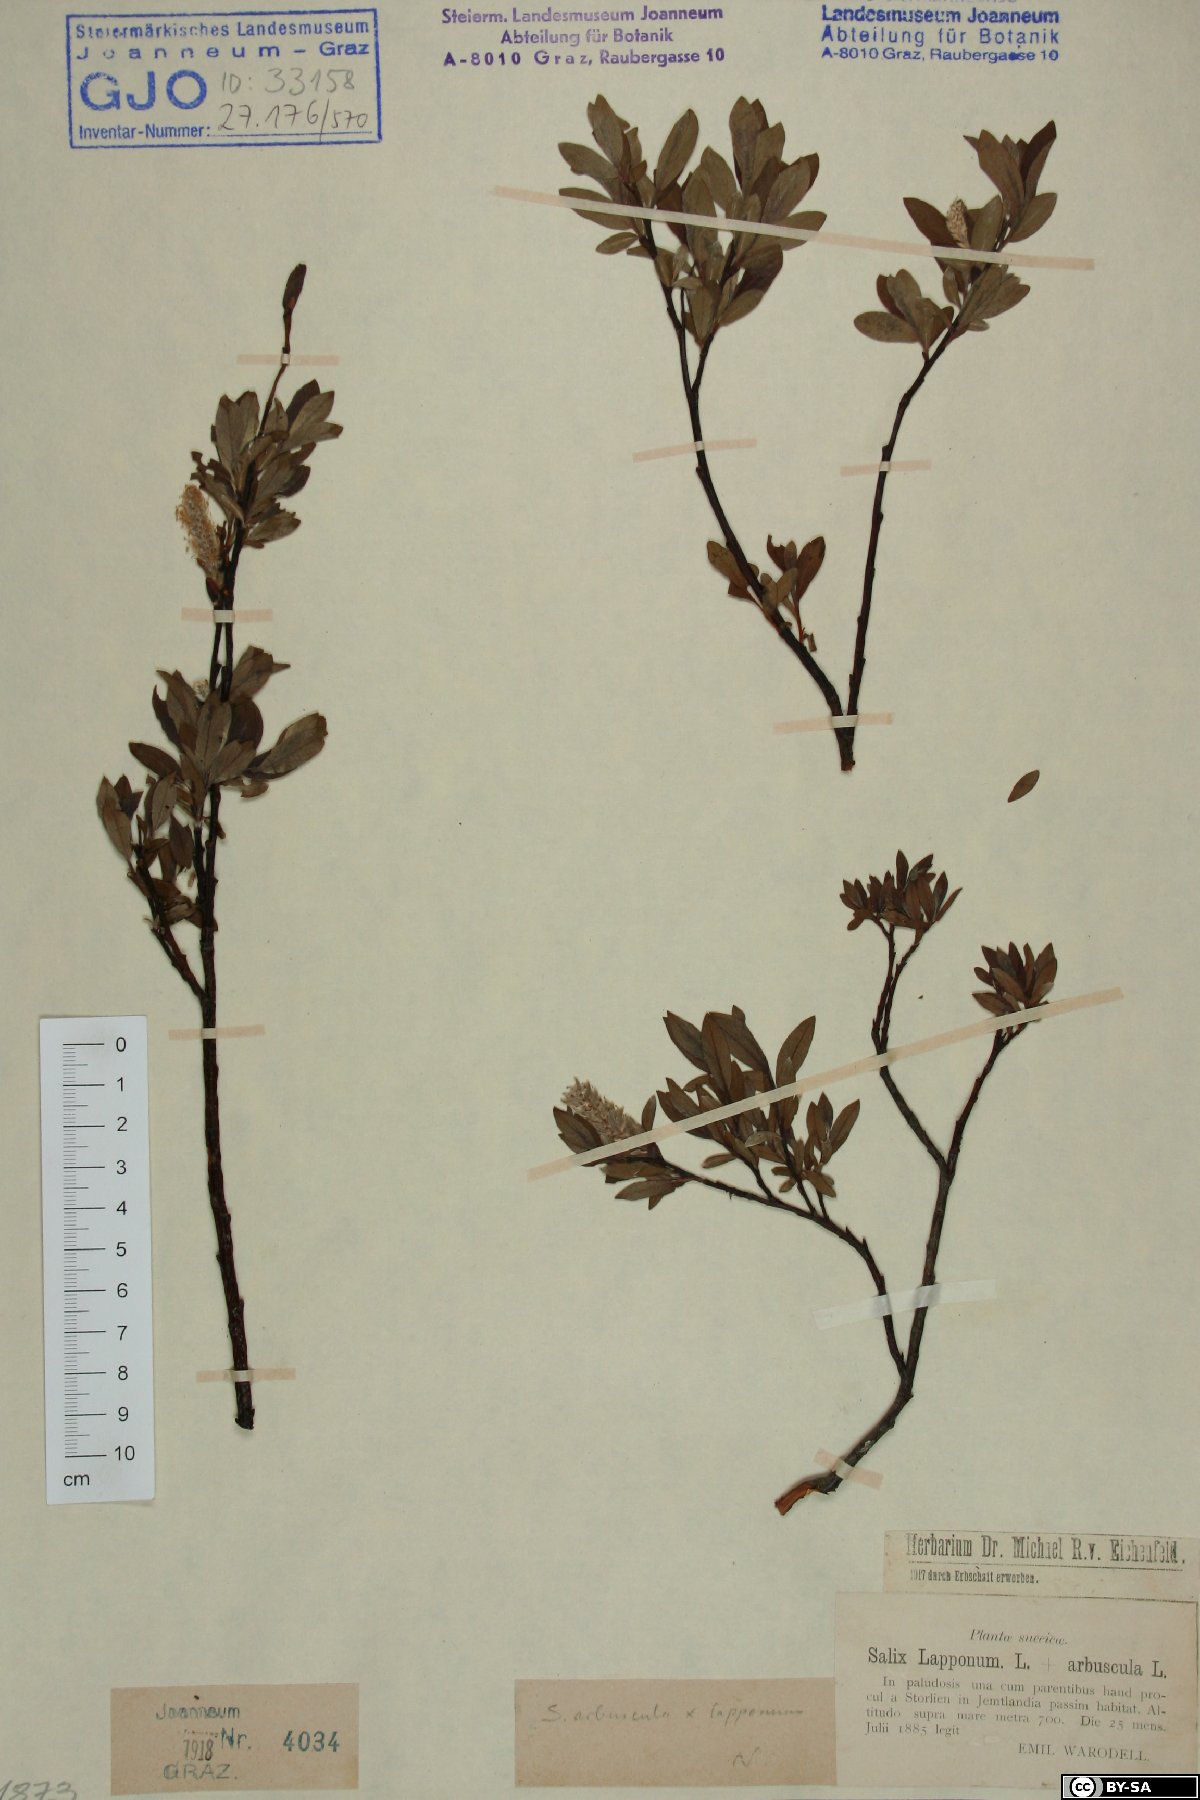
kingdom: Plantae
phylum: Tracheophyta
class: Magnoliopsida
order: Malpighiales
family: Salicaceae
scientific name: Salicaceae
